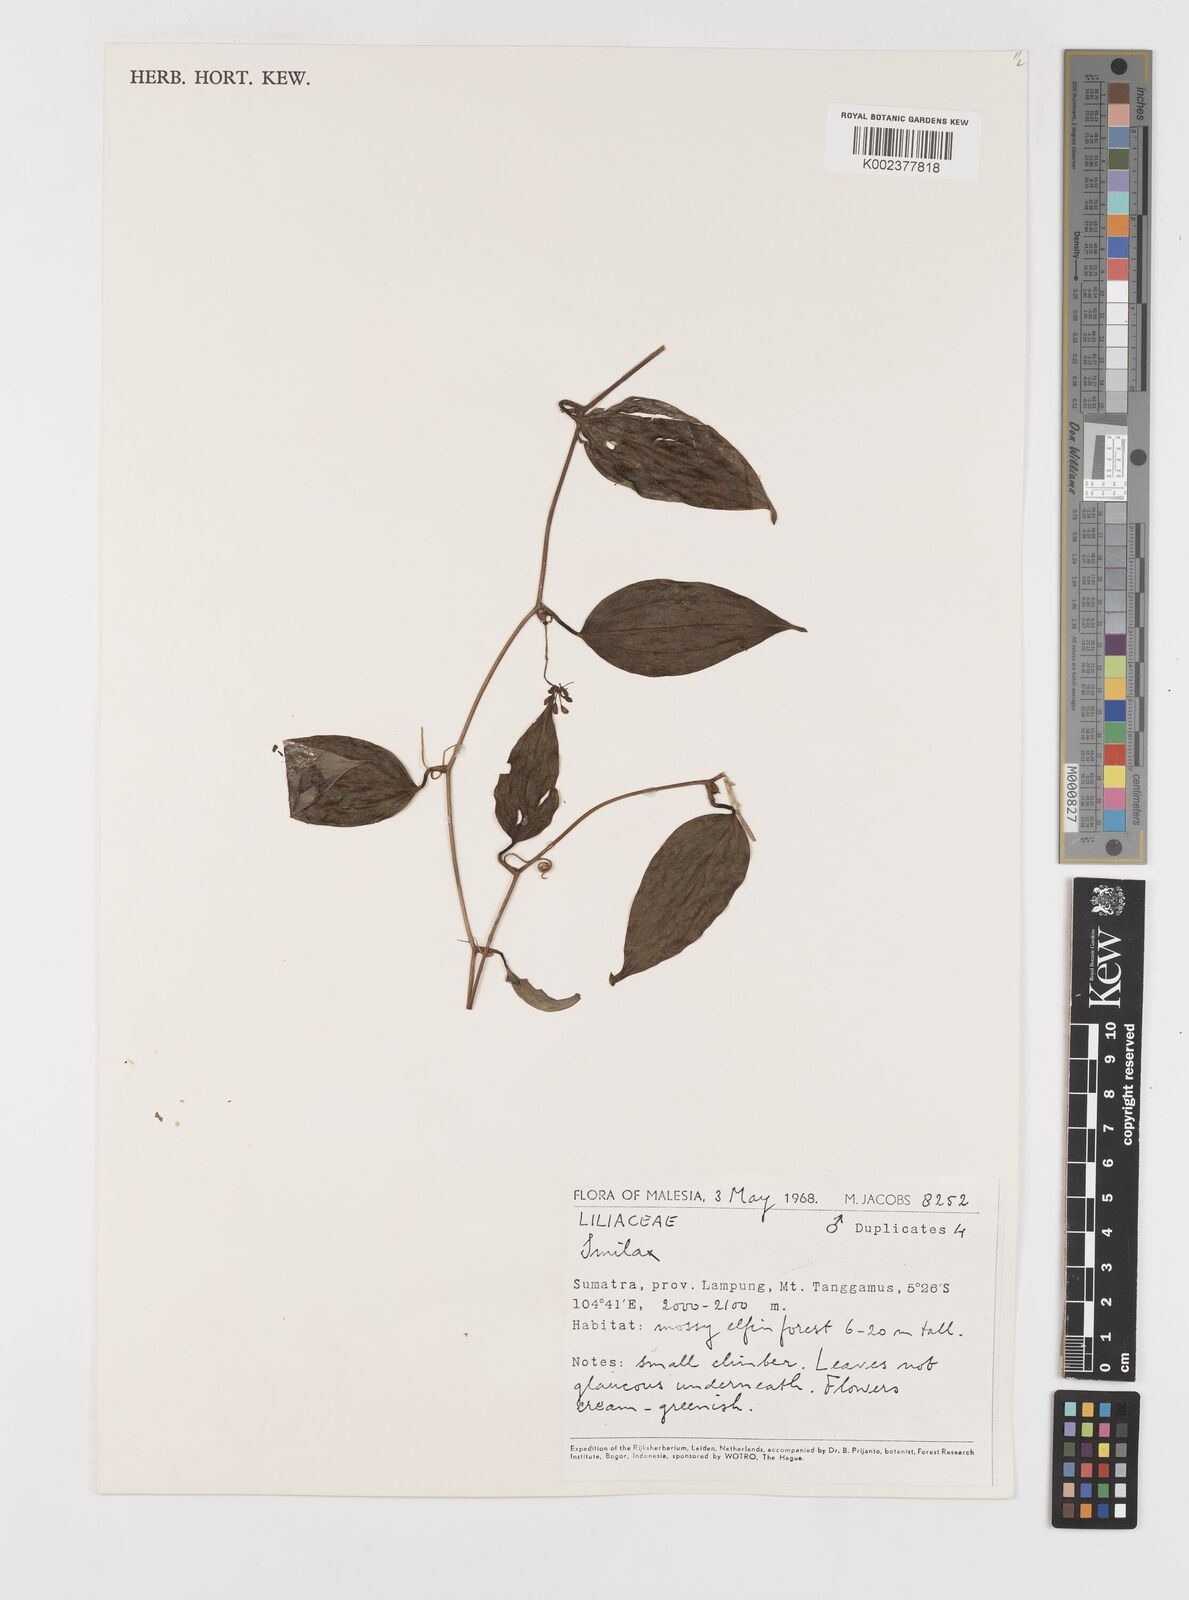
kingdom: Plantae
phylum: Tracheophyta
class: Liliopsida
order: Liliales
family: Smilacaceae
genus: Smilax
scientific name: Smilax
